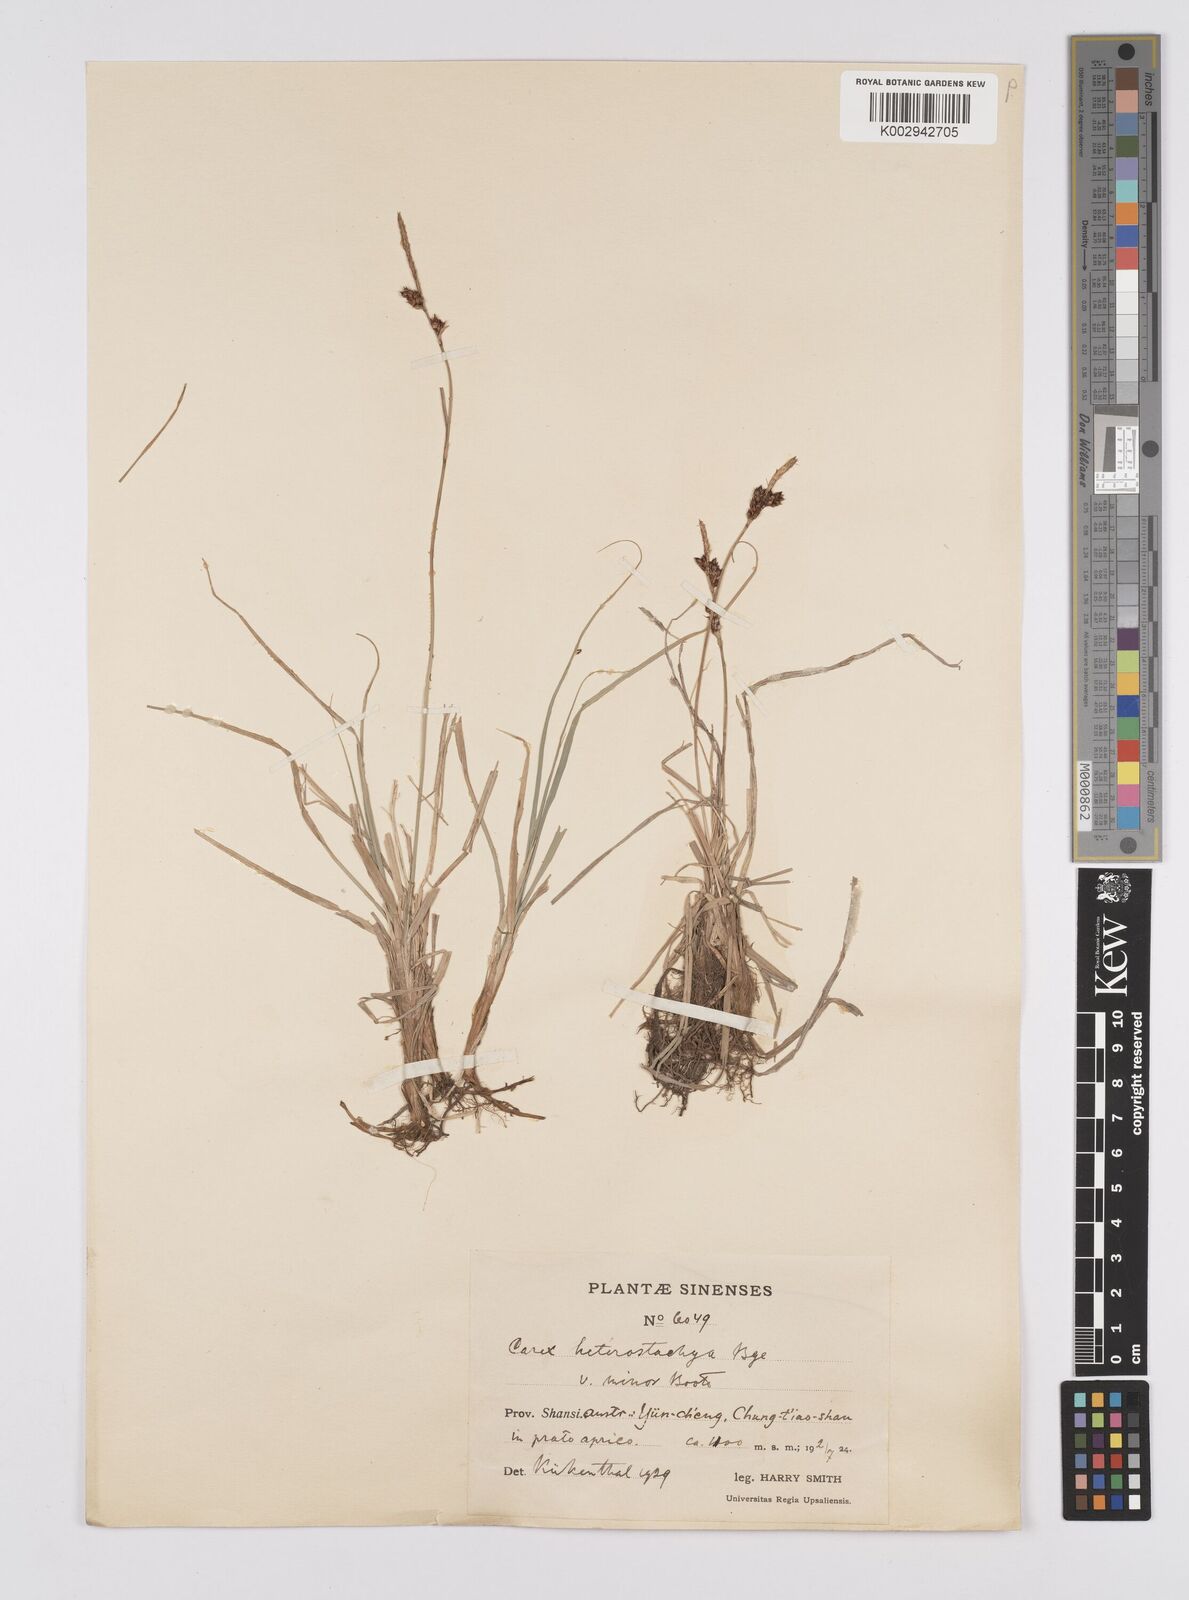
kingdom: Plantae
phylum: Tracheophyta
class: Liliopsida
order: Poales
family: Cyperaceae
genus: Carex
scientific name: Carex heterostachya
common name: Different-spike sedge
